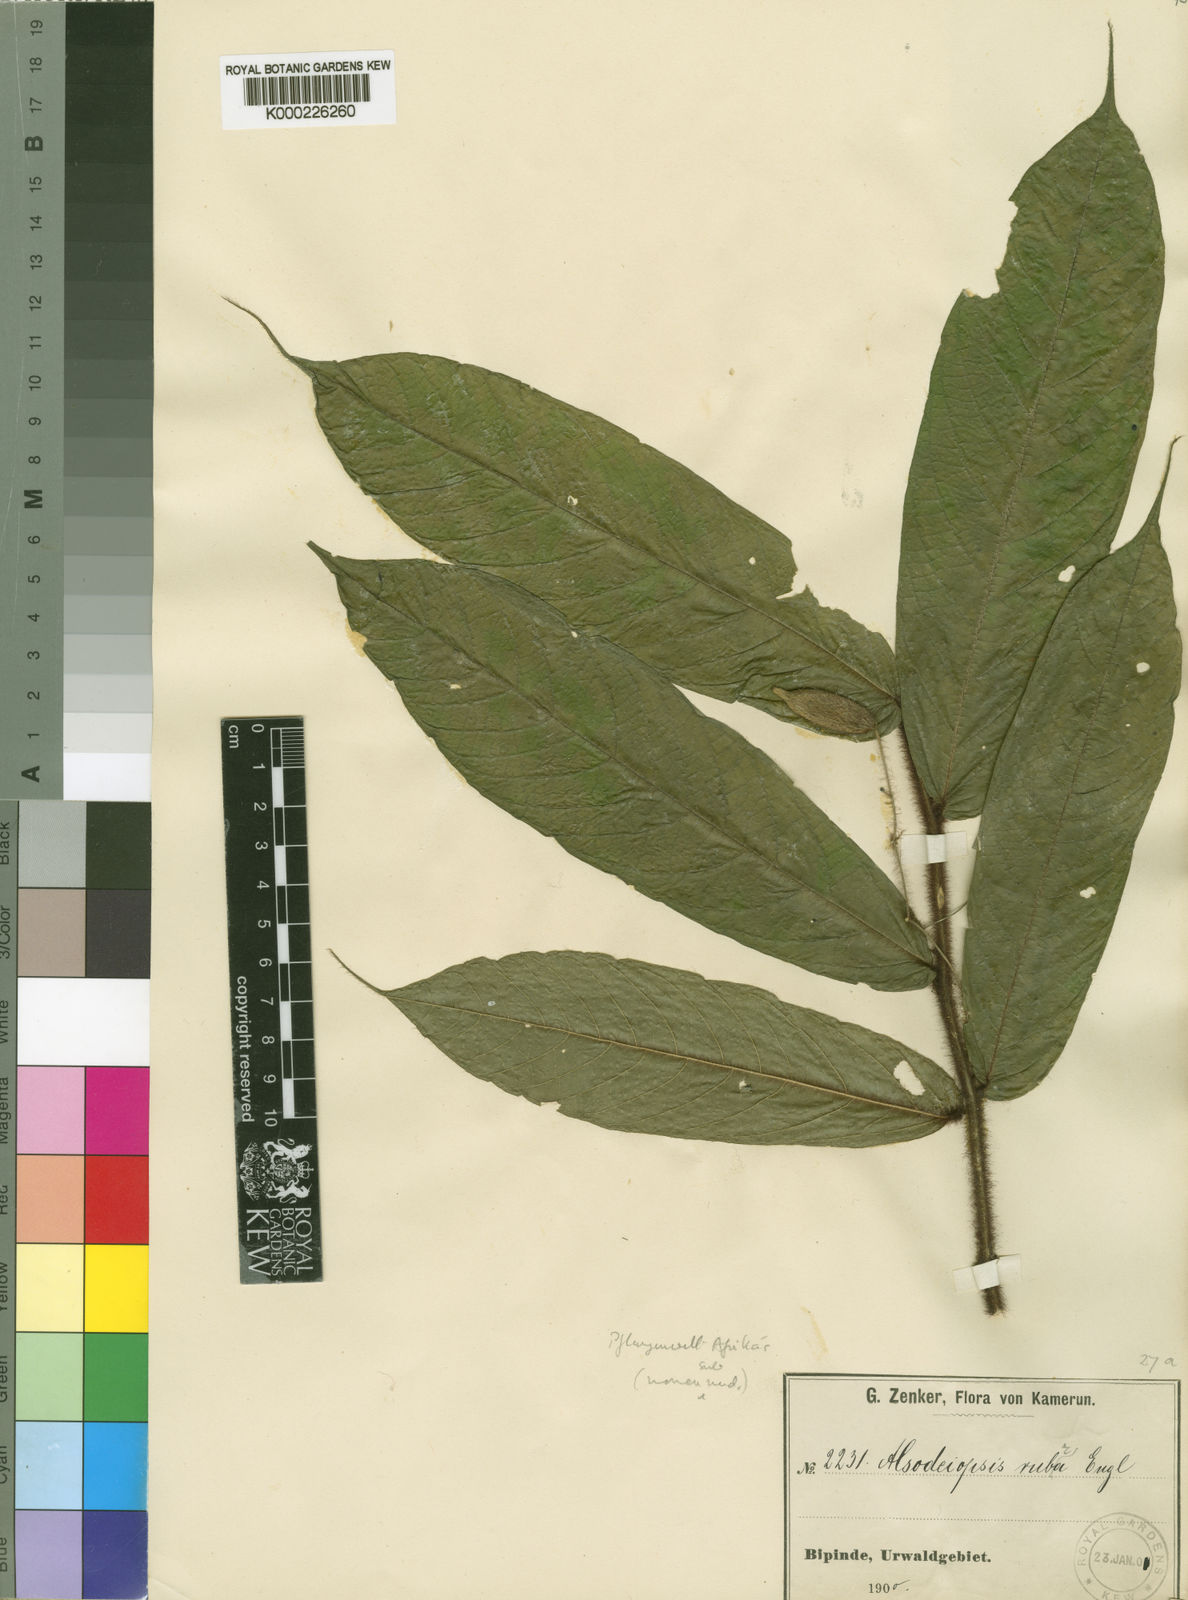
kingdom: Plantae
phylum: Tracheophyta
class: Magnoliopsida
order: Icacinales
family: Icacinaceae
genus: Alsodeiopsis
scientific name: Alsodeiopsis rubra
